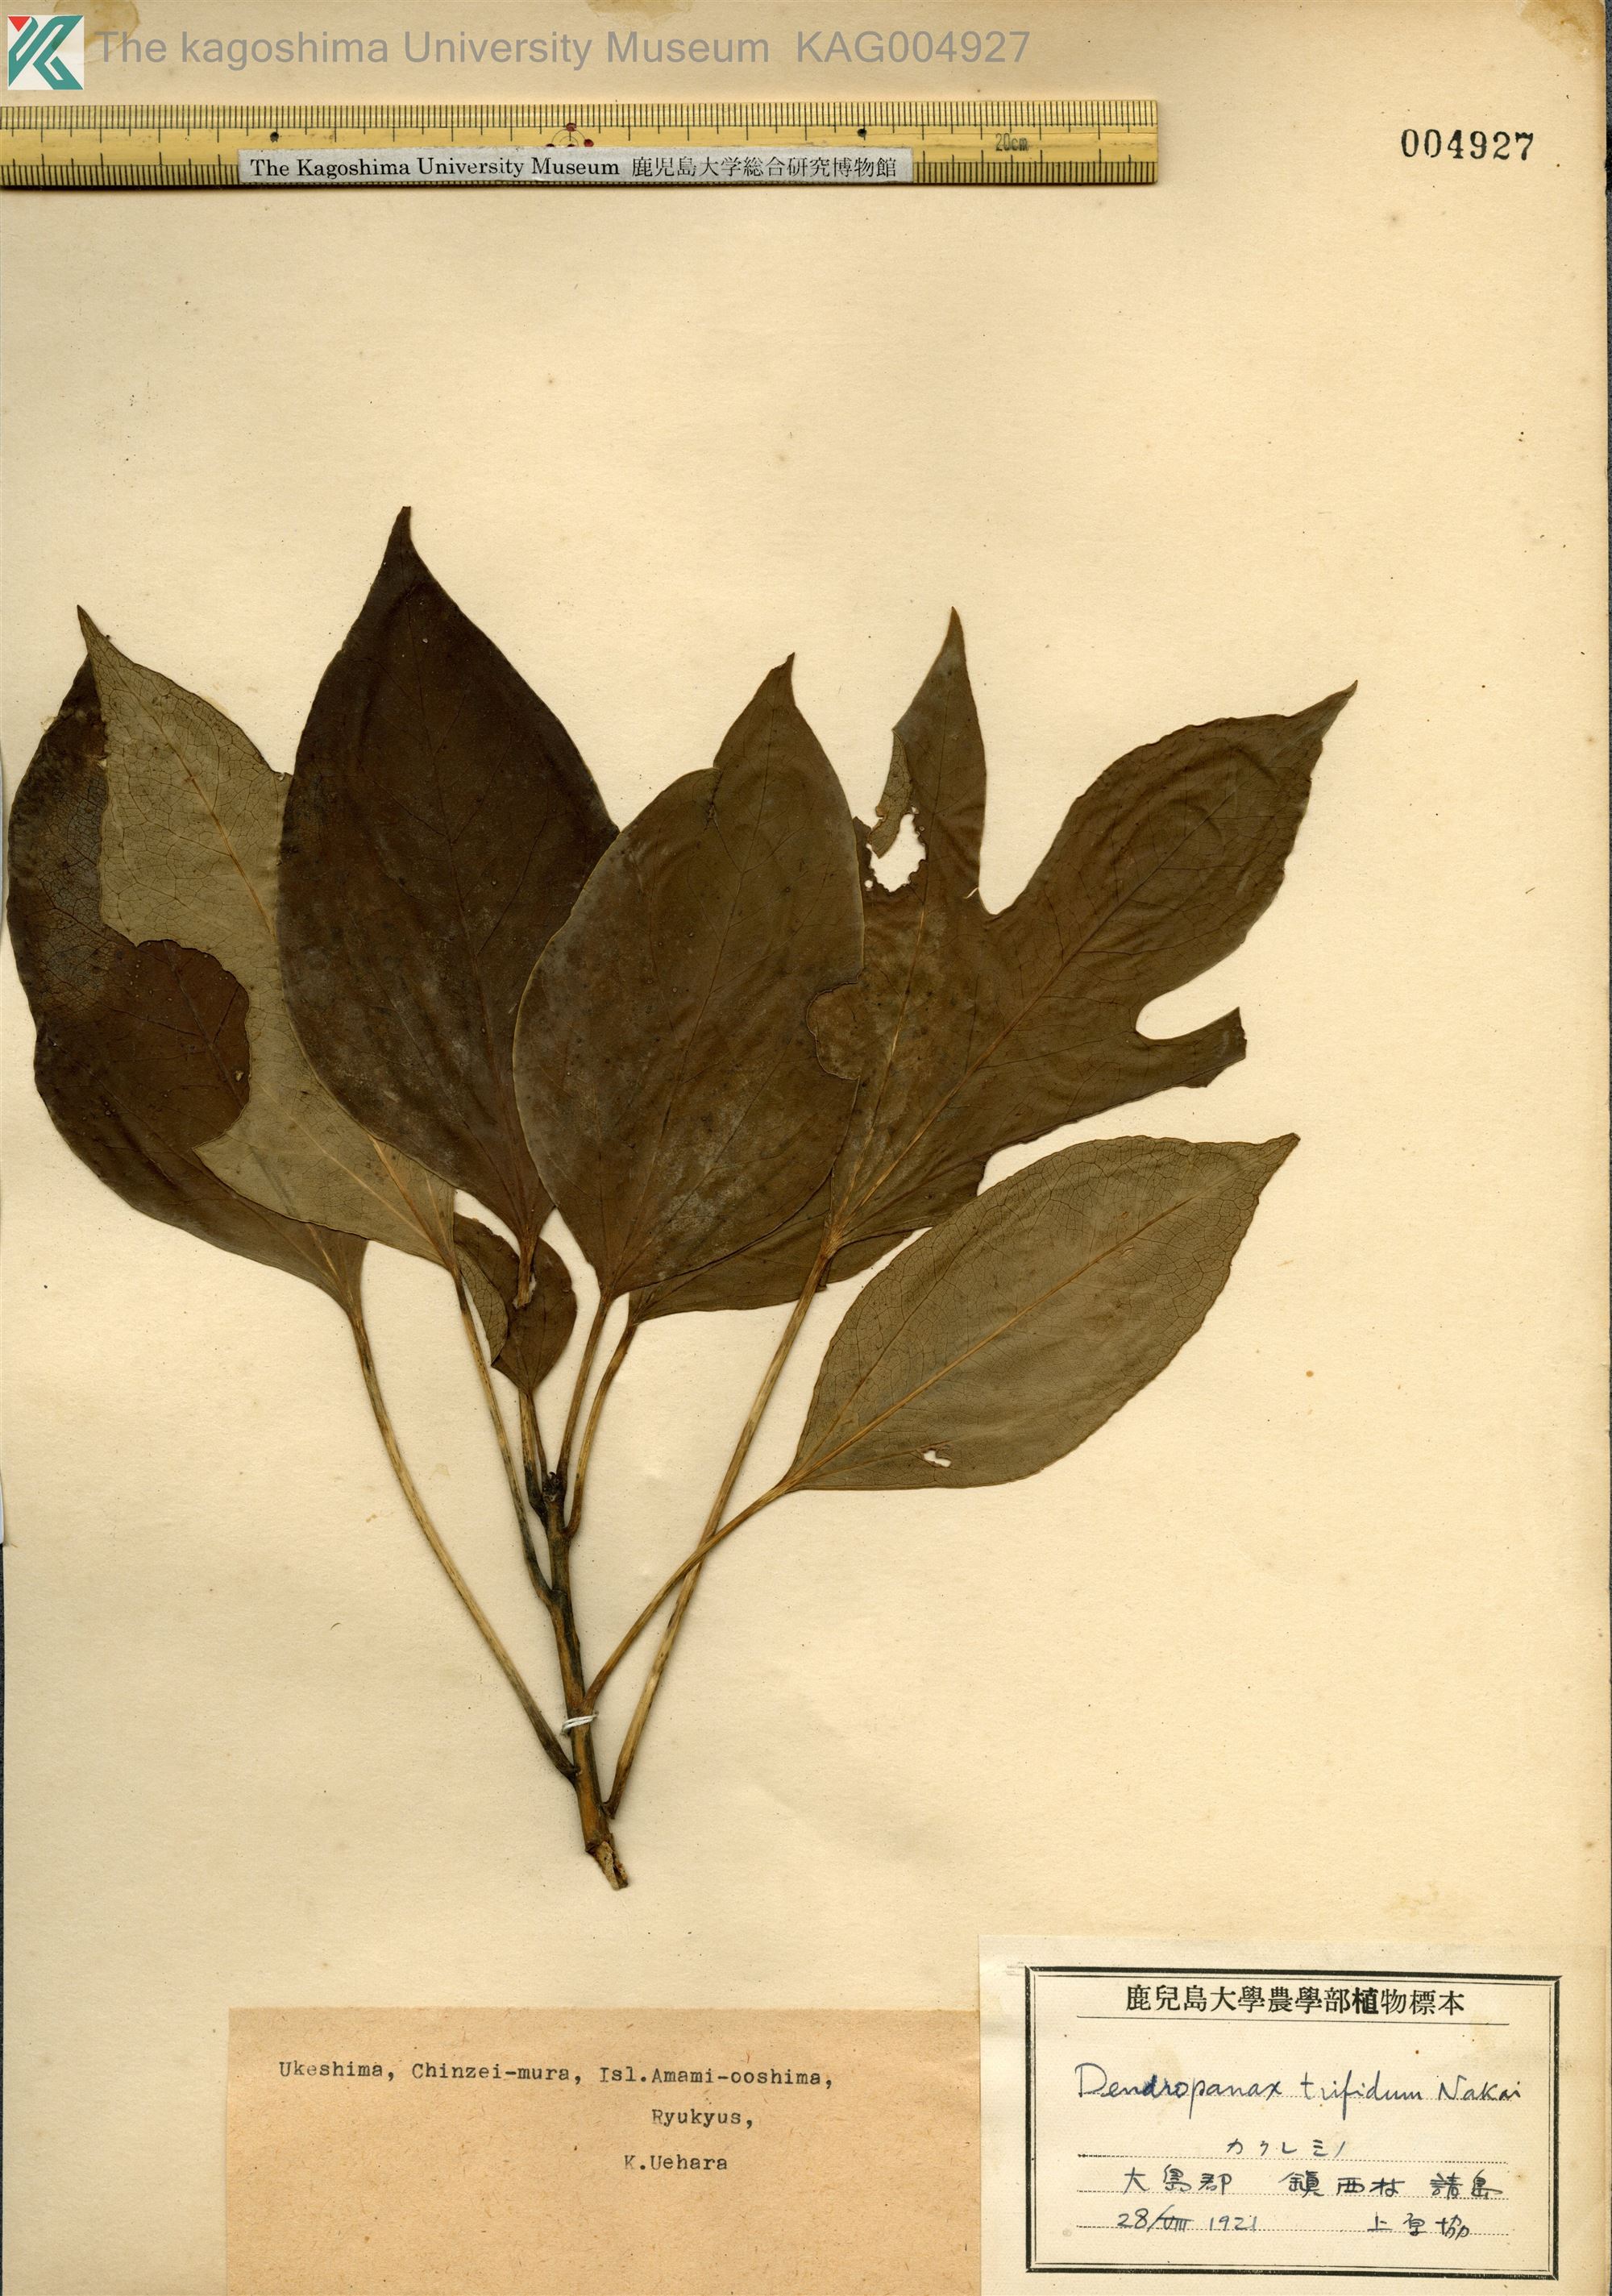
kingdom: Plantae
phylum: Tracheophyta
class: Magnoliopsida
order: Apiales
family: Araliaceae
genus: Dendropanax
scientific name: Dendropanax trifidus
